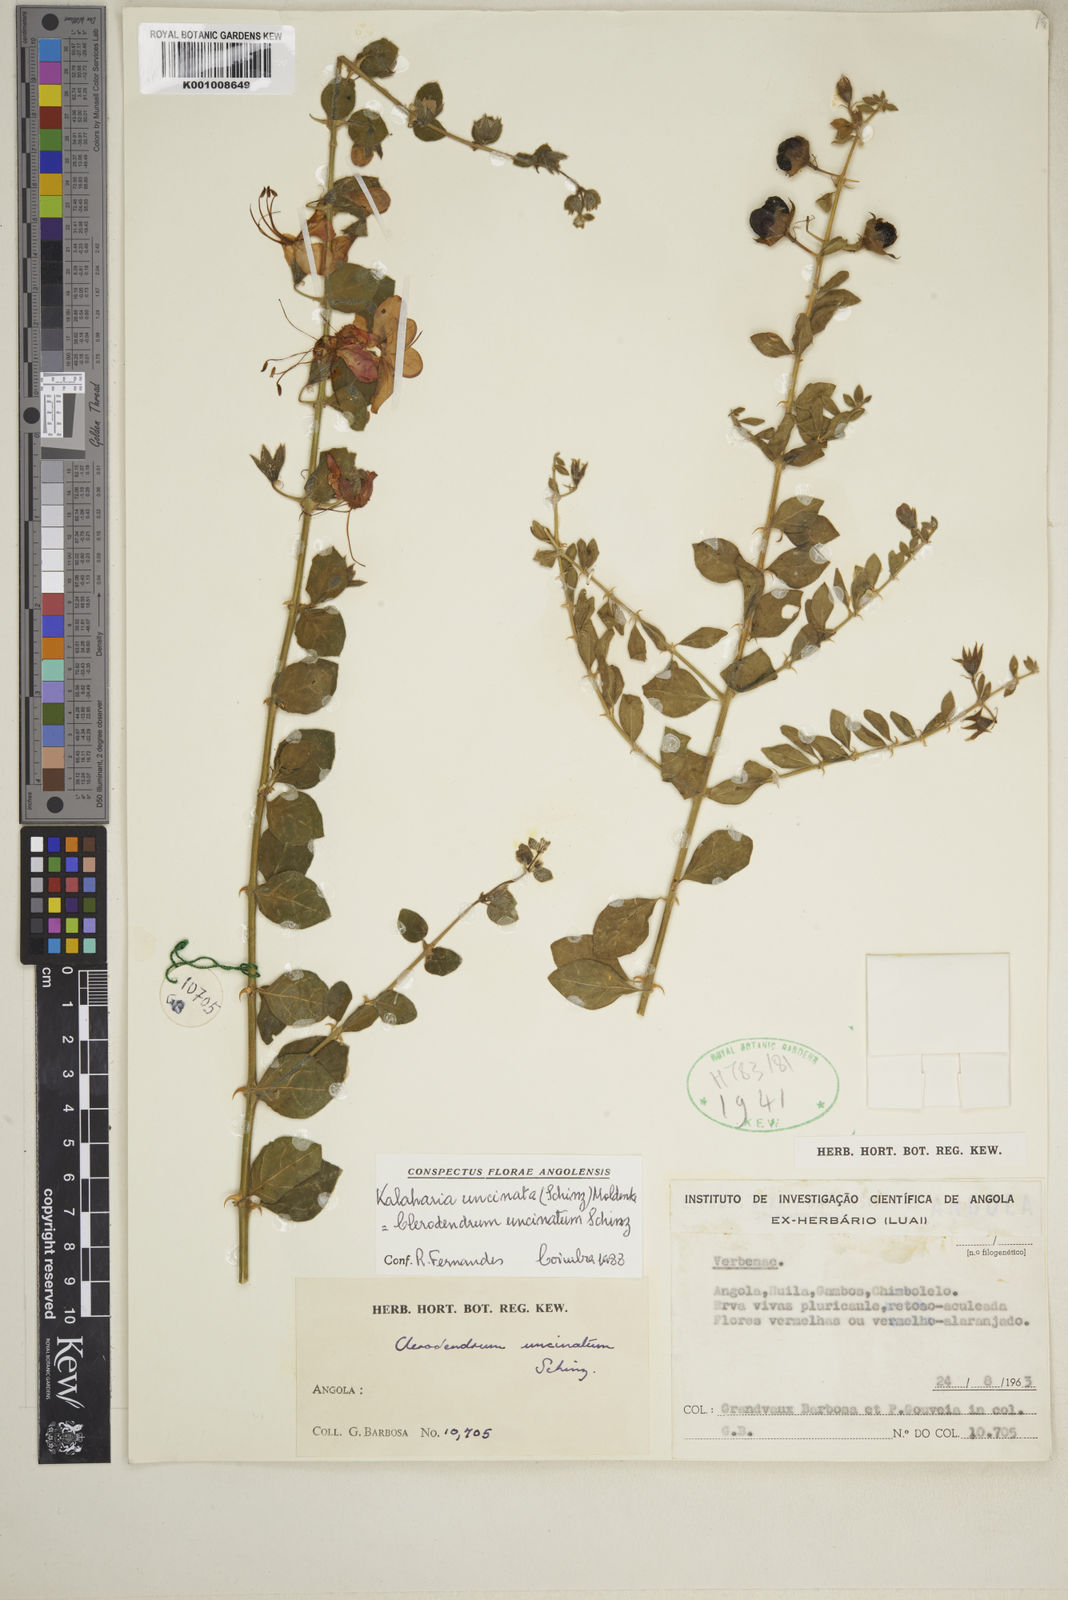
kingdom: Plantae
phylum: Tracheophyta
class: Magnoliopsida
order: Lamiales
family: Lamiaceae
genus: Kalaharia
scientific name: Kalaharia uncinata
